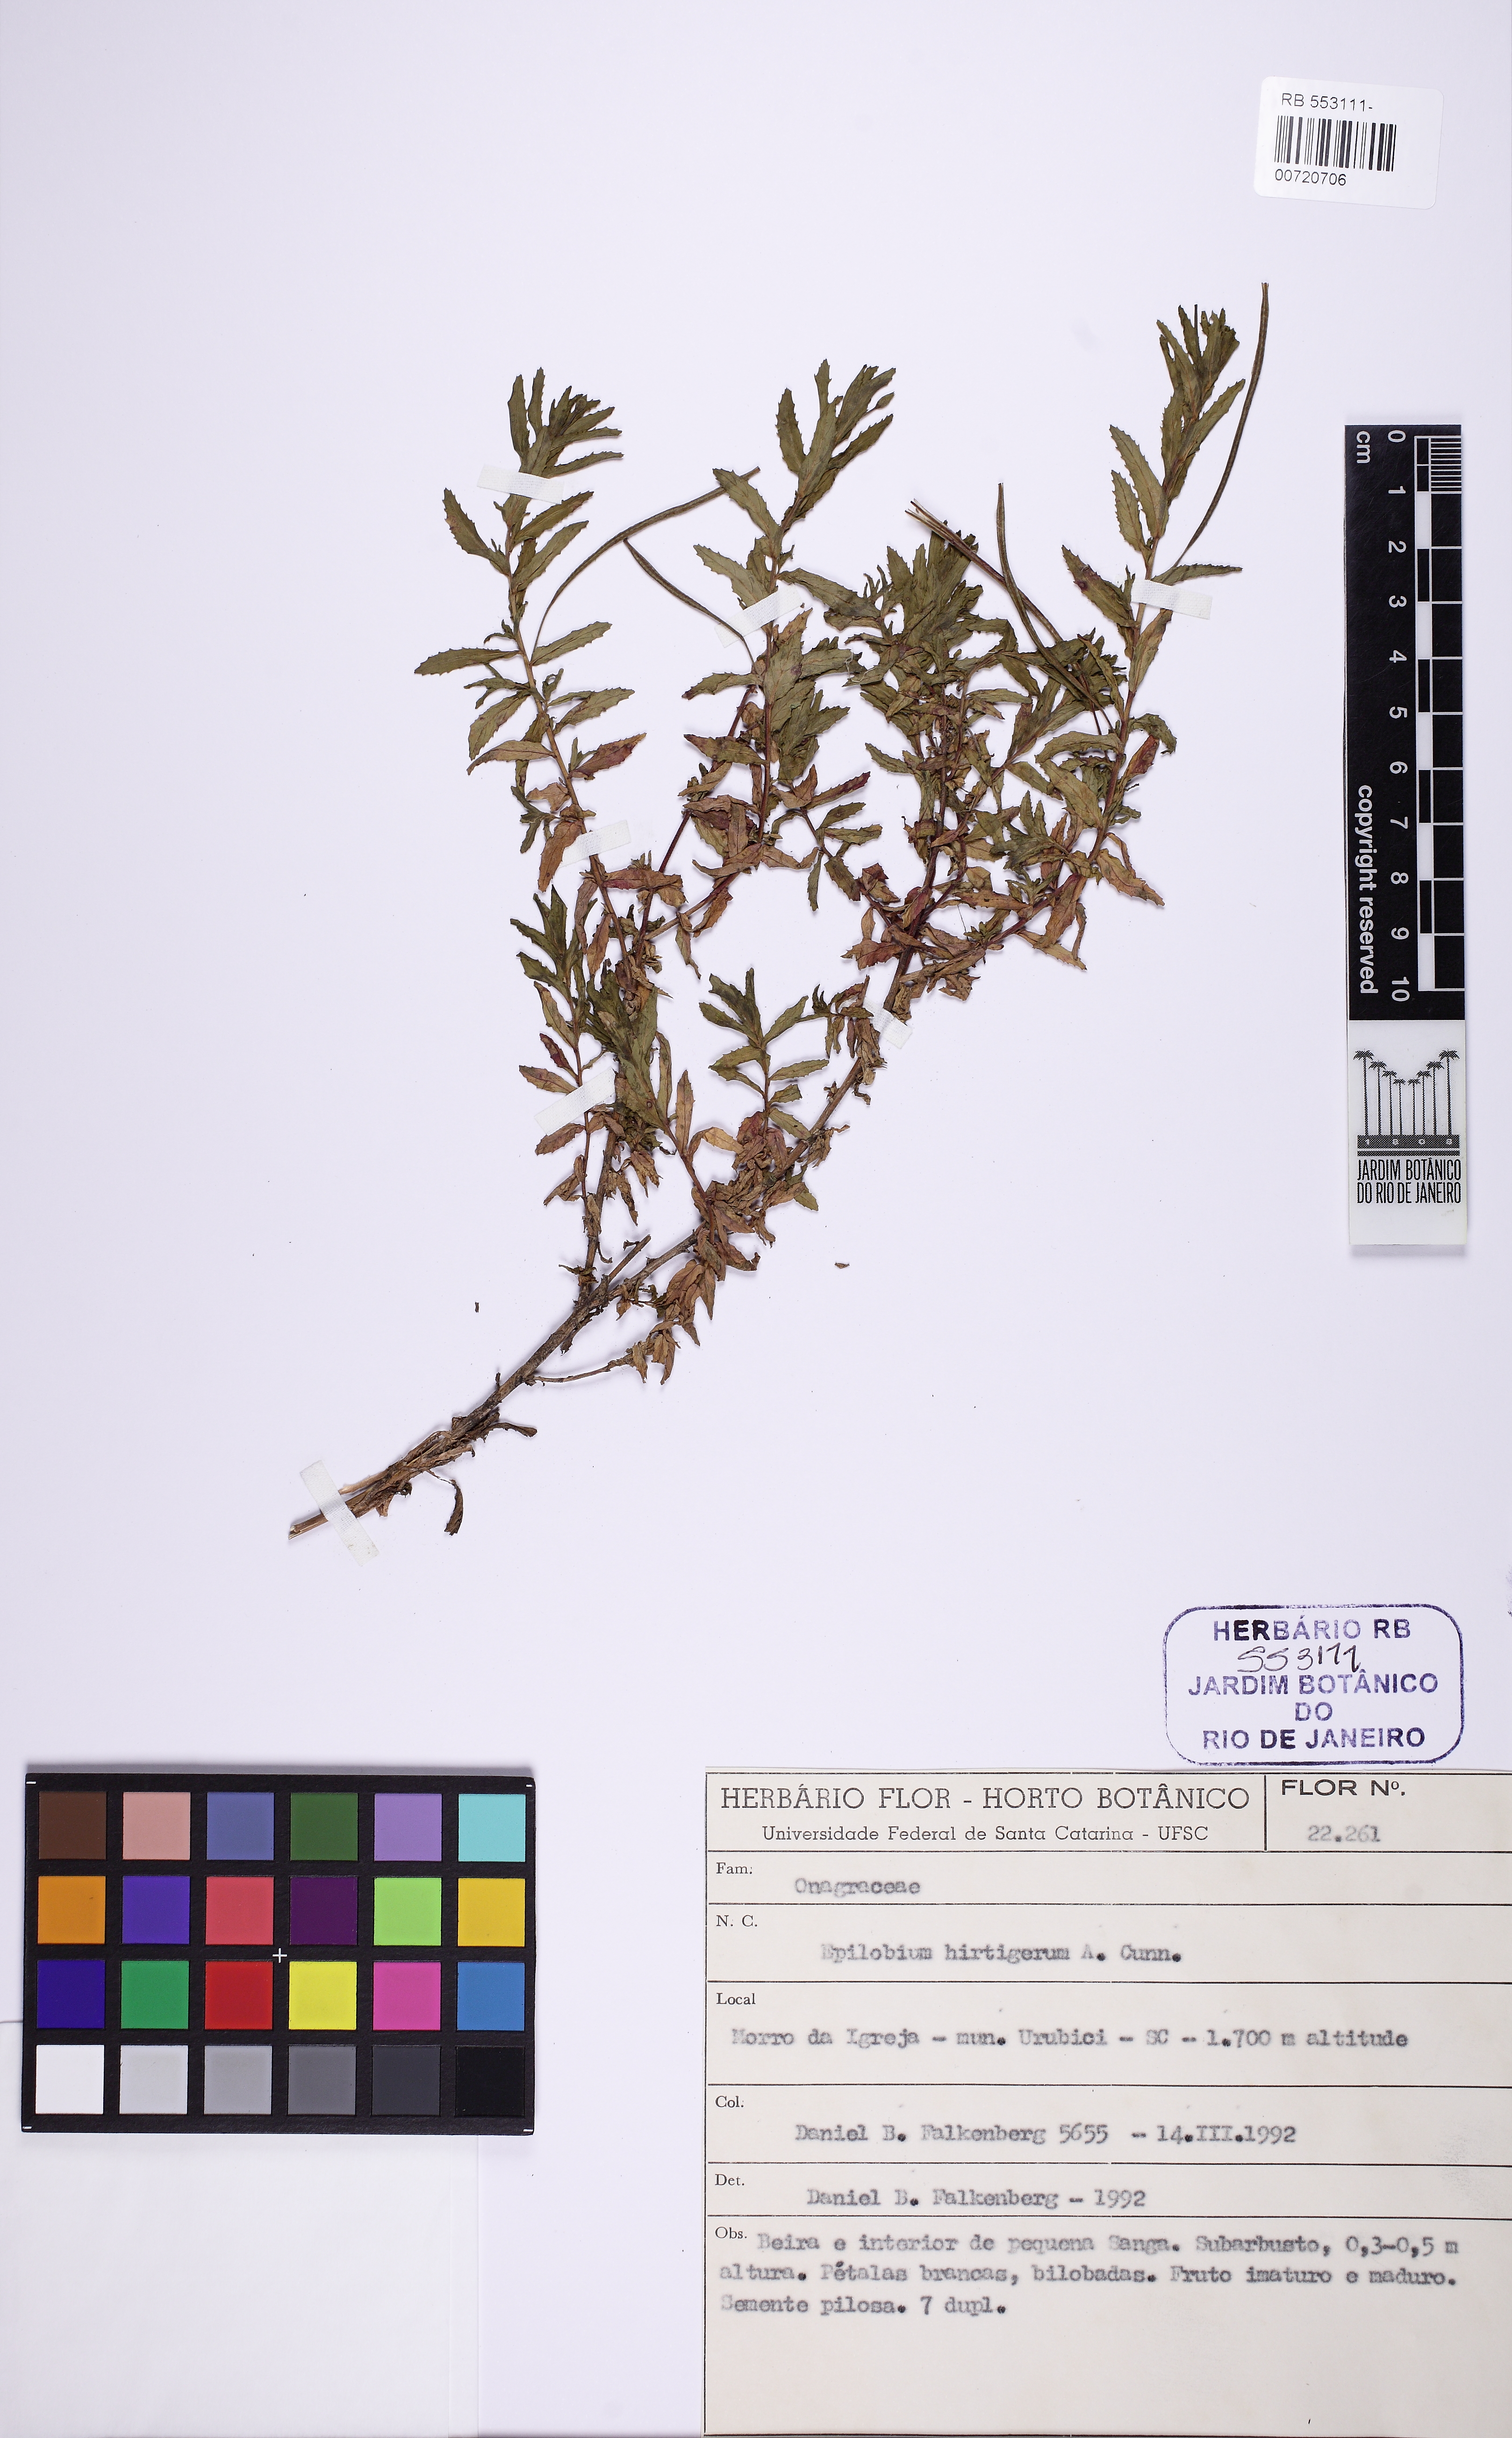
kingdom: Plantae
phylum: Tracheophyta
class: Magnoliopsida
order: Myrtales
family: Onagraceae
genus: Epilobium
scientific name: Epilobium hirtigerum
